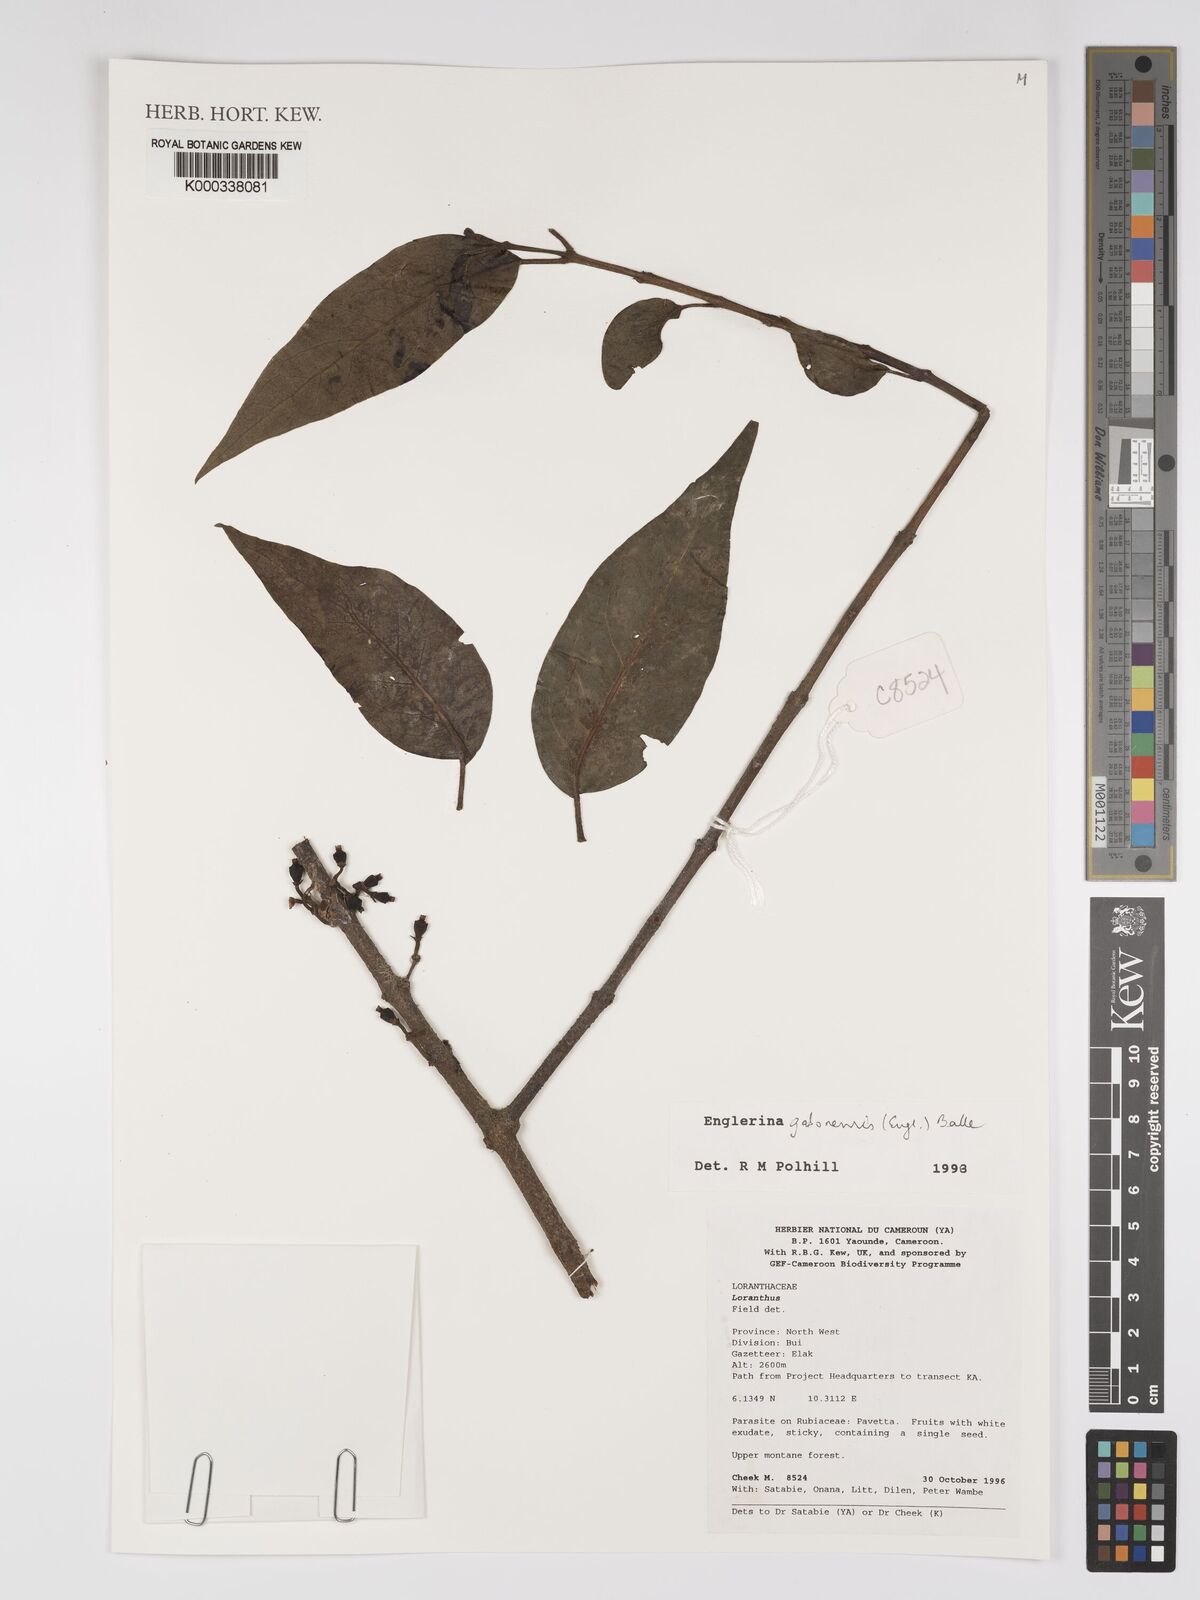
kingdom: Plantae
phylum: Tracheophyta
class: Magnoliopsida
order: Santalales
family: Loranthaceae
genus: Englerina
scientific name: Englerina gabonensis
